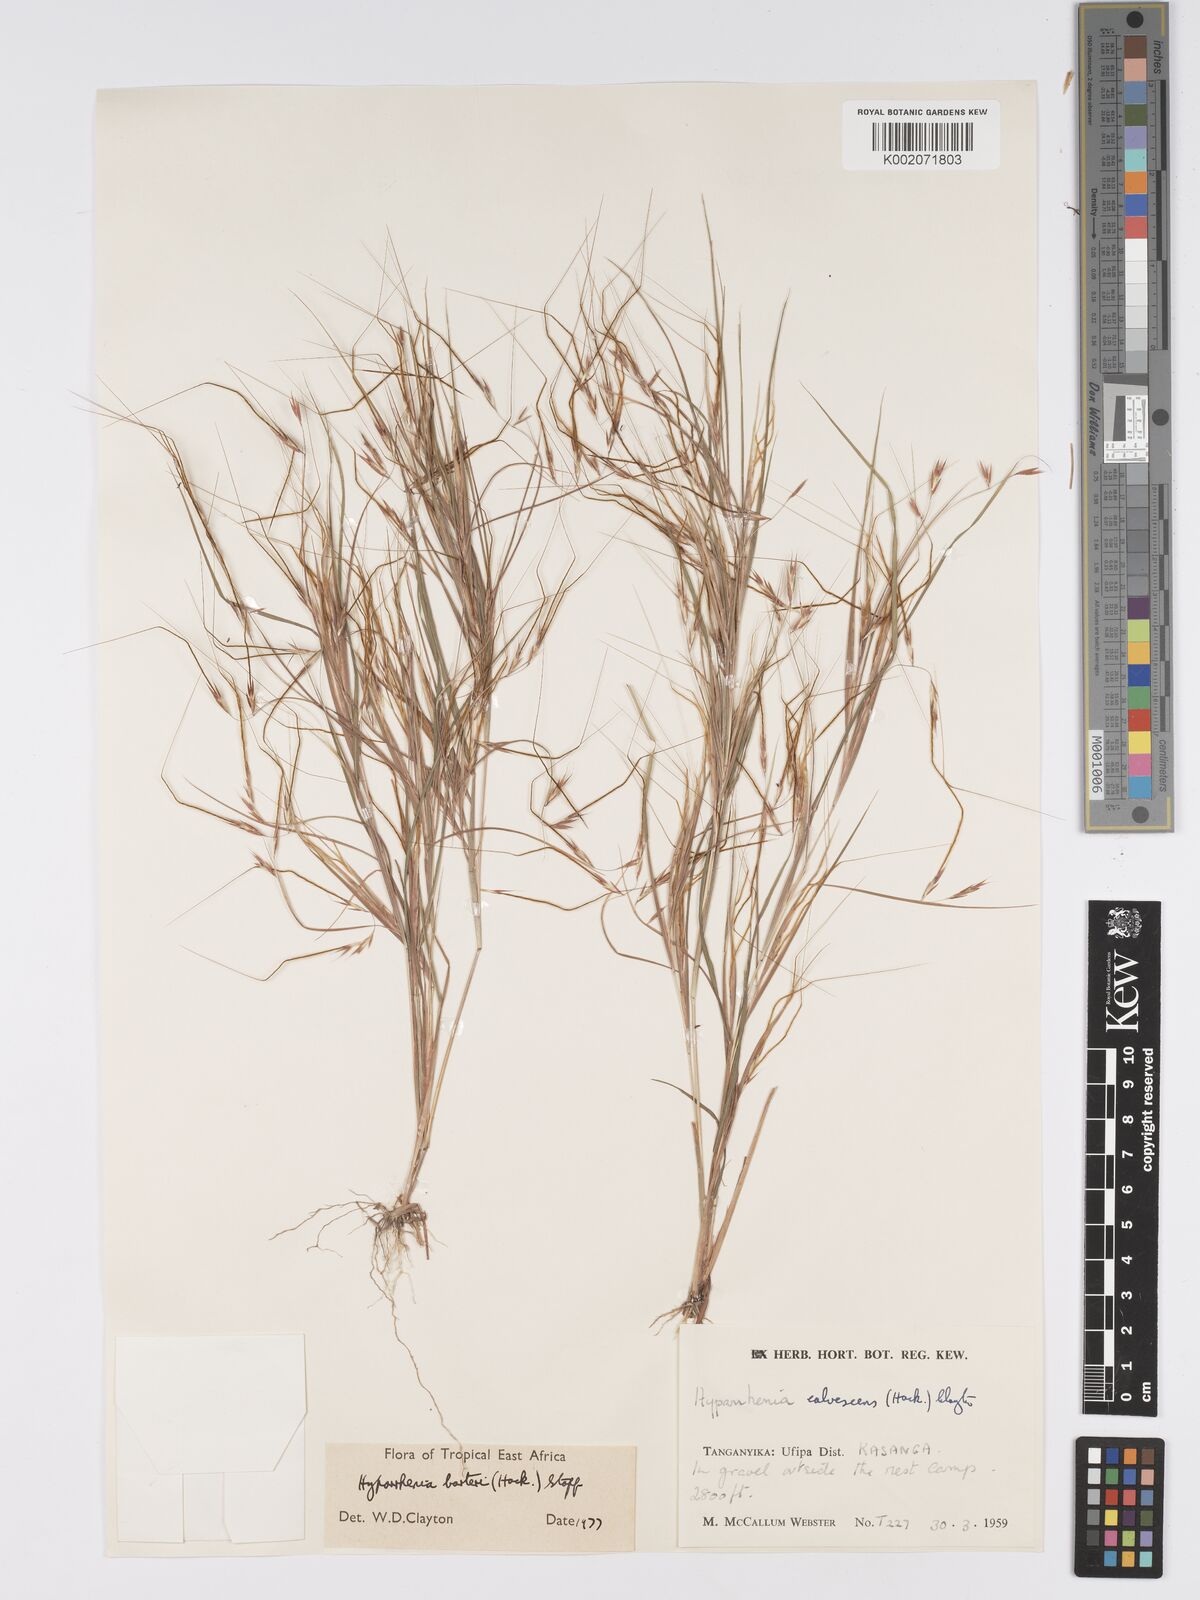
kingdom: Plantae
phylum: Tracheophyta
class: Liliopsida
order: Poales
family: Poaceae
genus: Hyparrhenia
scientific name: Hyparrhenia barteri
